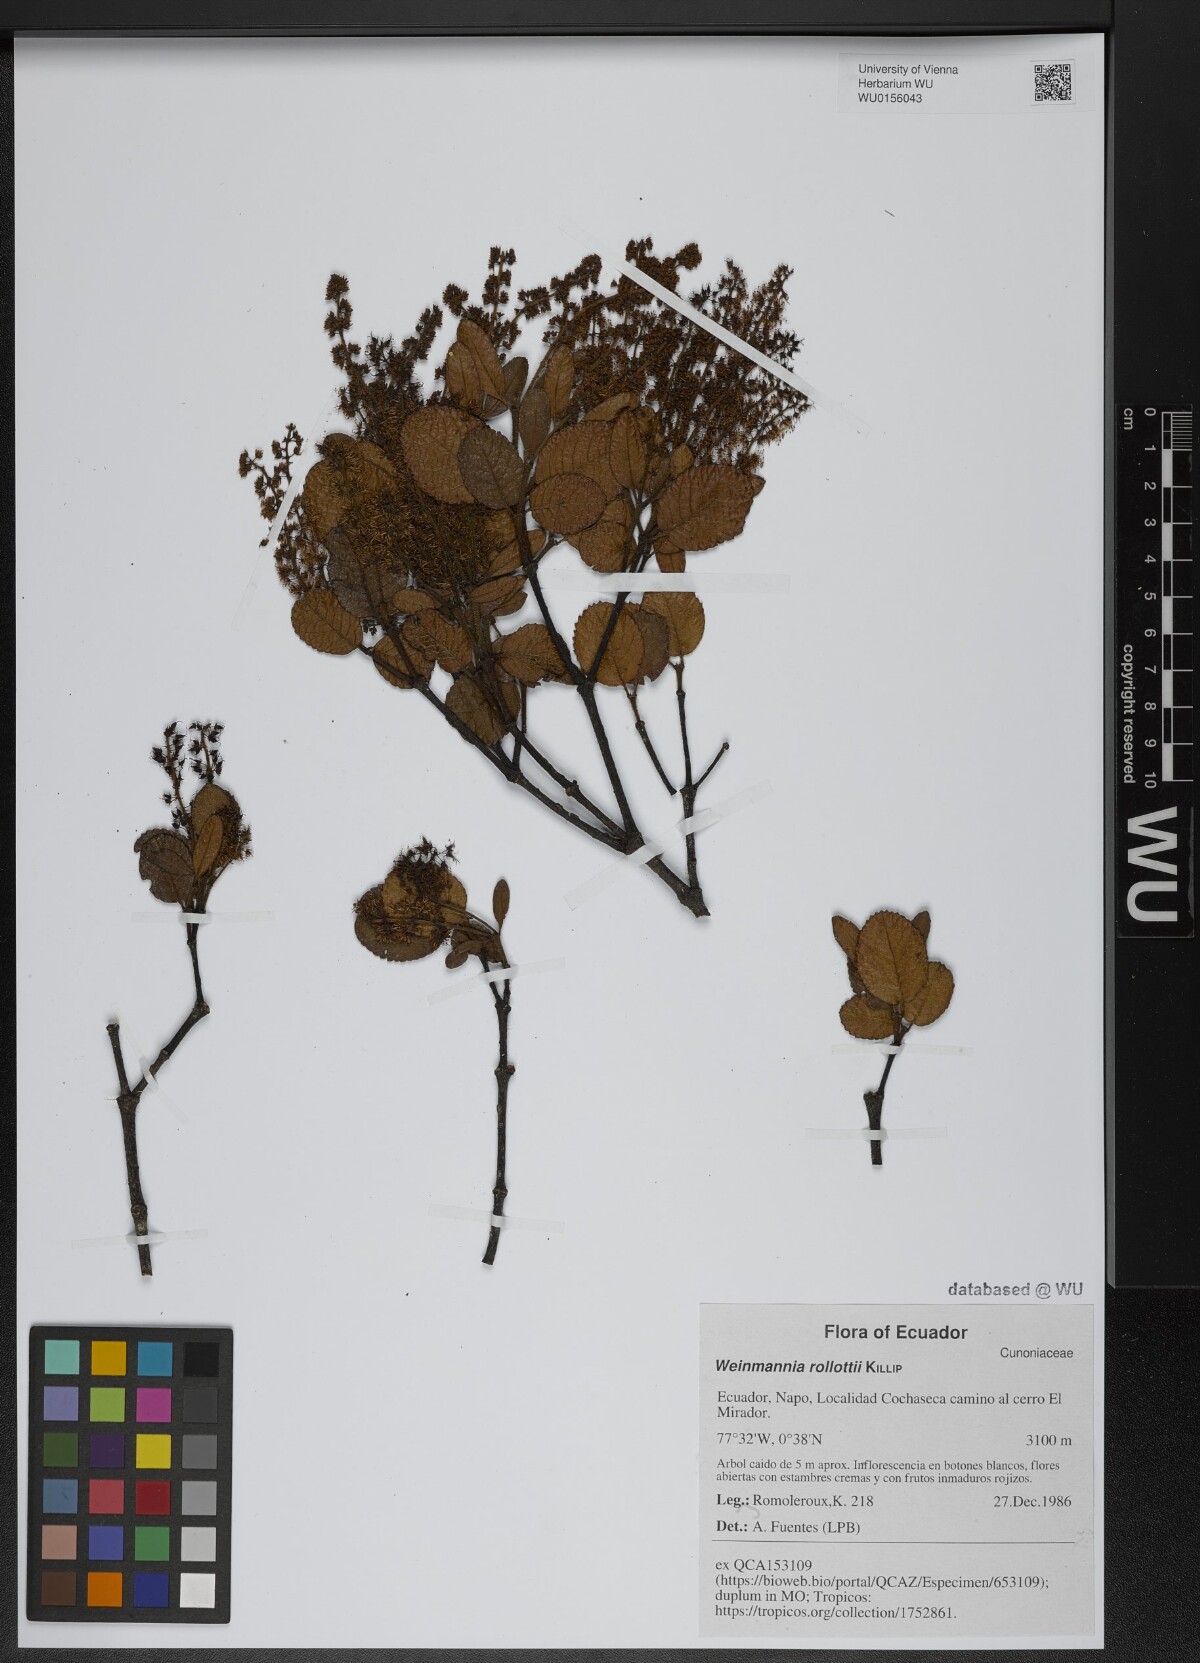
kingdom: Plantae
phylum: Tracheophyta
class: Magnoliopsida
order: Oxalidales
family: Cunoniaceae
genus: Weinmannia
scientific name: Weinmannia rollottii
